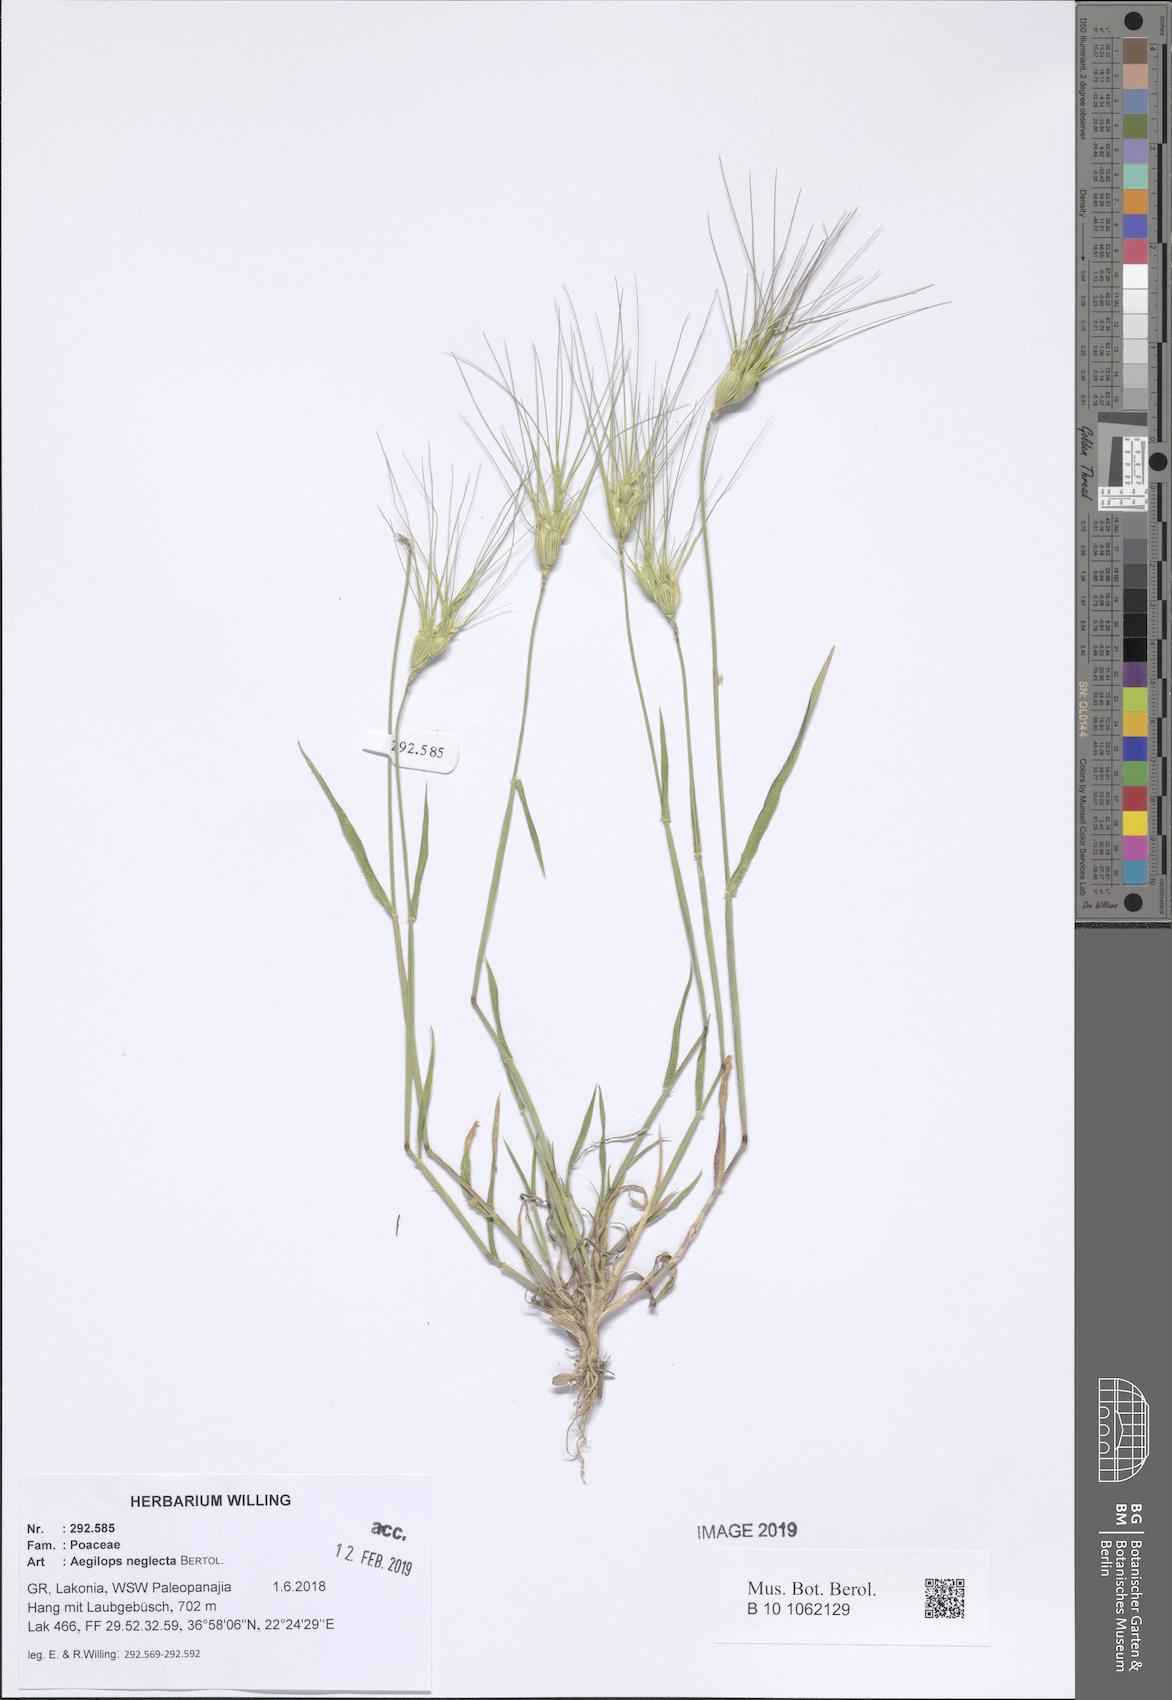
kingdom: Plantae
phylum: Tracheophyta
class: Liliopsida
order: Poales
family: Poaceae
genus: Aegilops
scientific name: Aegilops neglecta
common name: Three-awn goat grass
